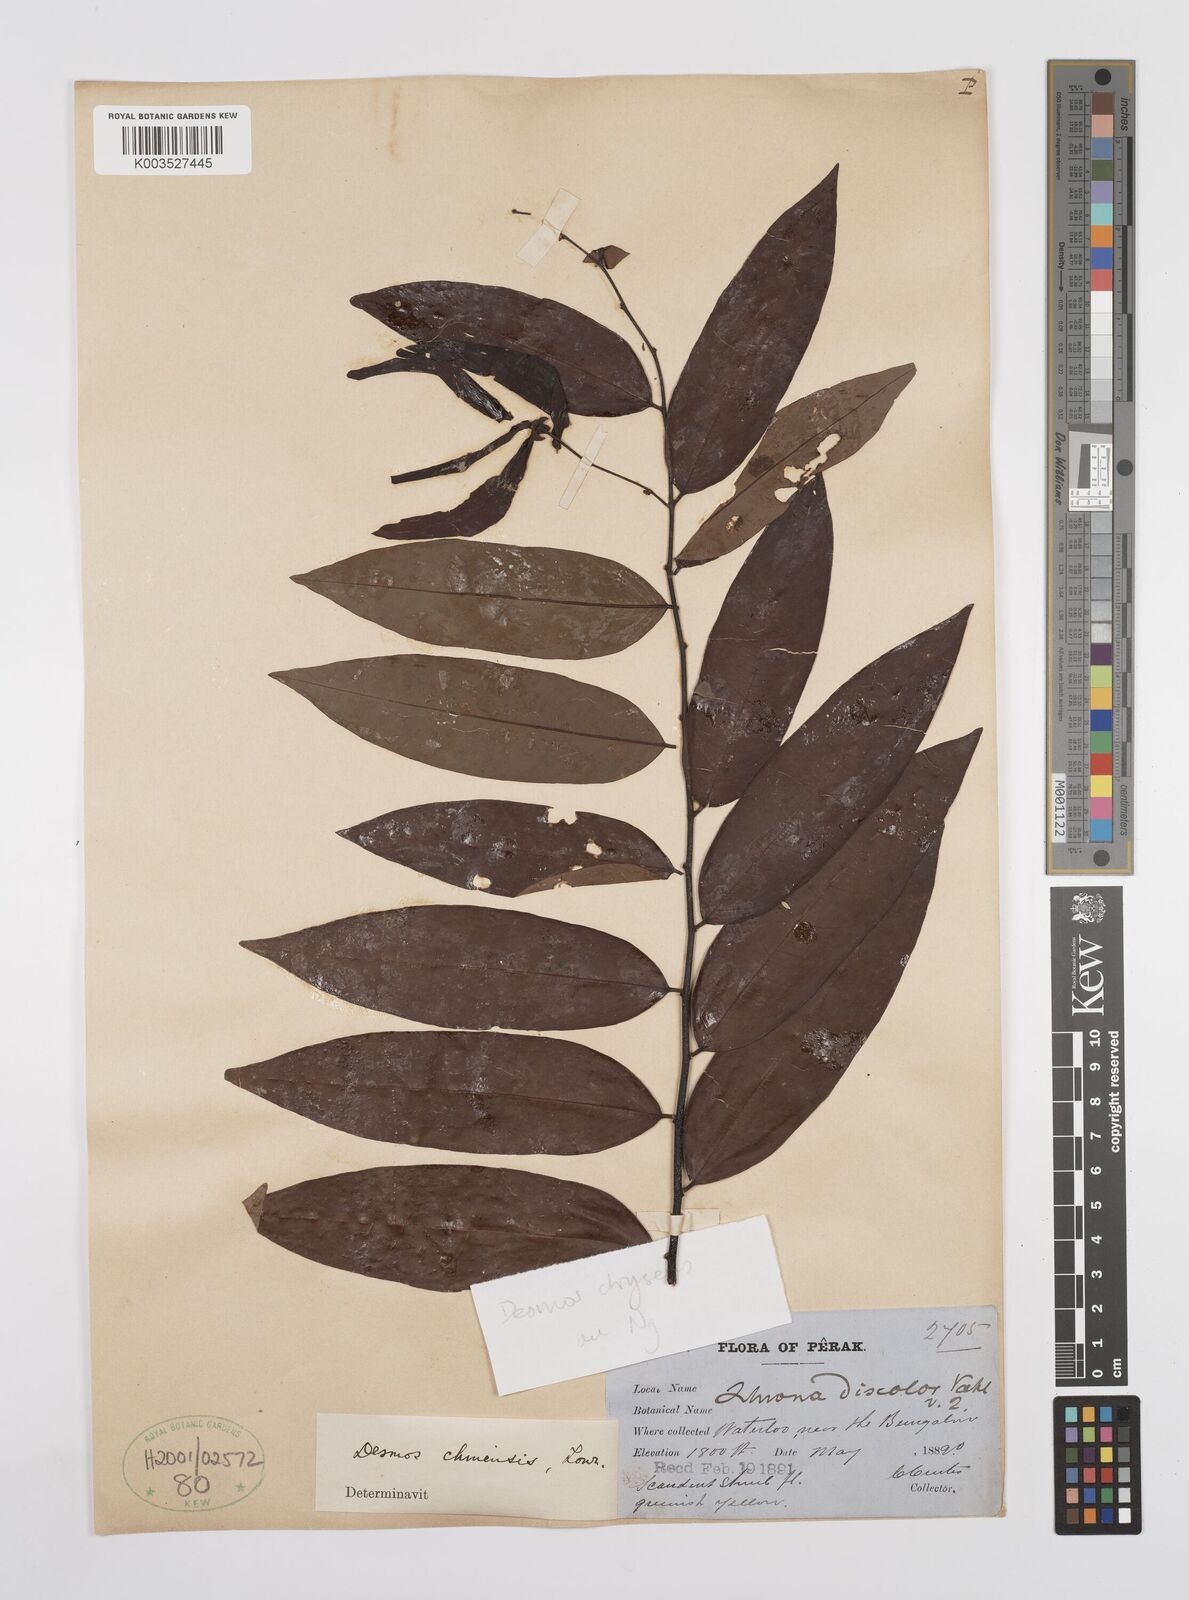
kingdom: Plantae
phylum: Tracheophyta
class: Magnoliopsida
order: Magnoliales
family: Annonaceae
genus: Desmos
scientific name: Desmos
